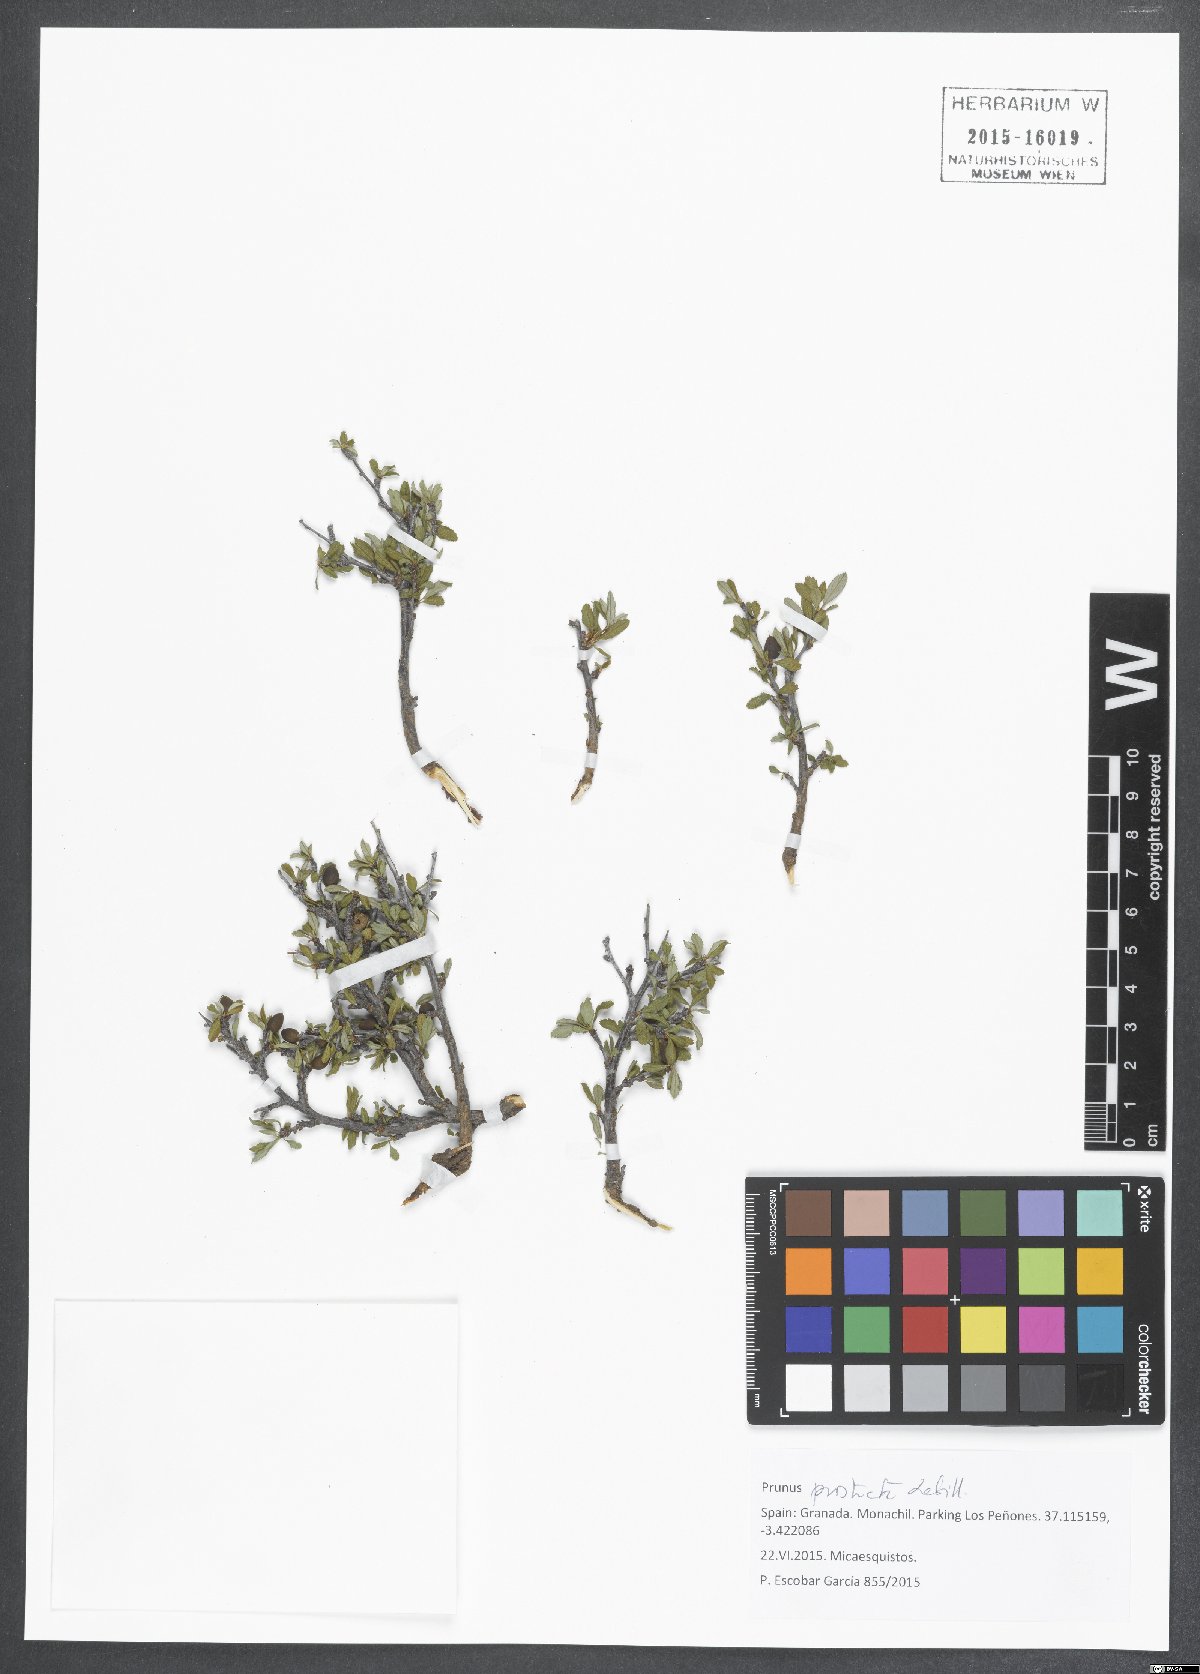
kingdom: Plantae
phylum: Tracheophyta
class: Magnoliopsida
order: Rosales
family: Rosaceae
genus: Prunus
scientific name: Prunus prostrata
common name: Mountain cherry
